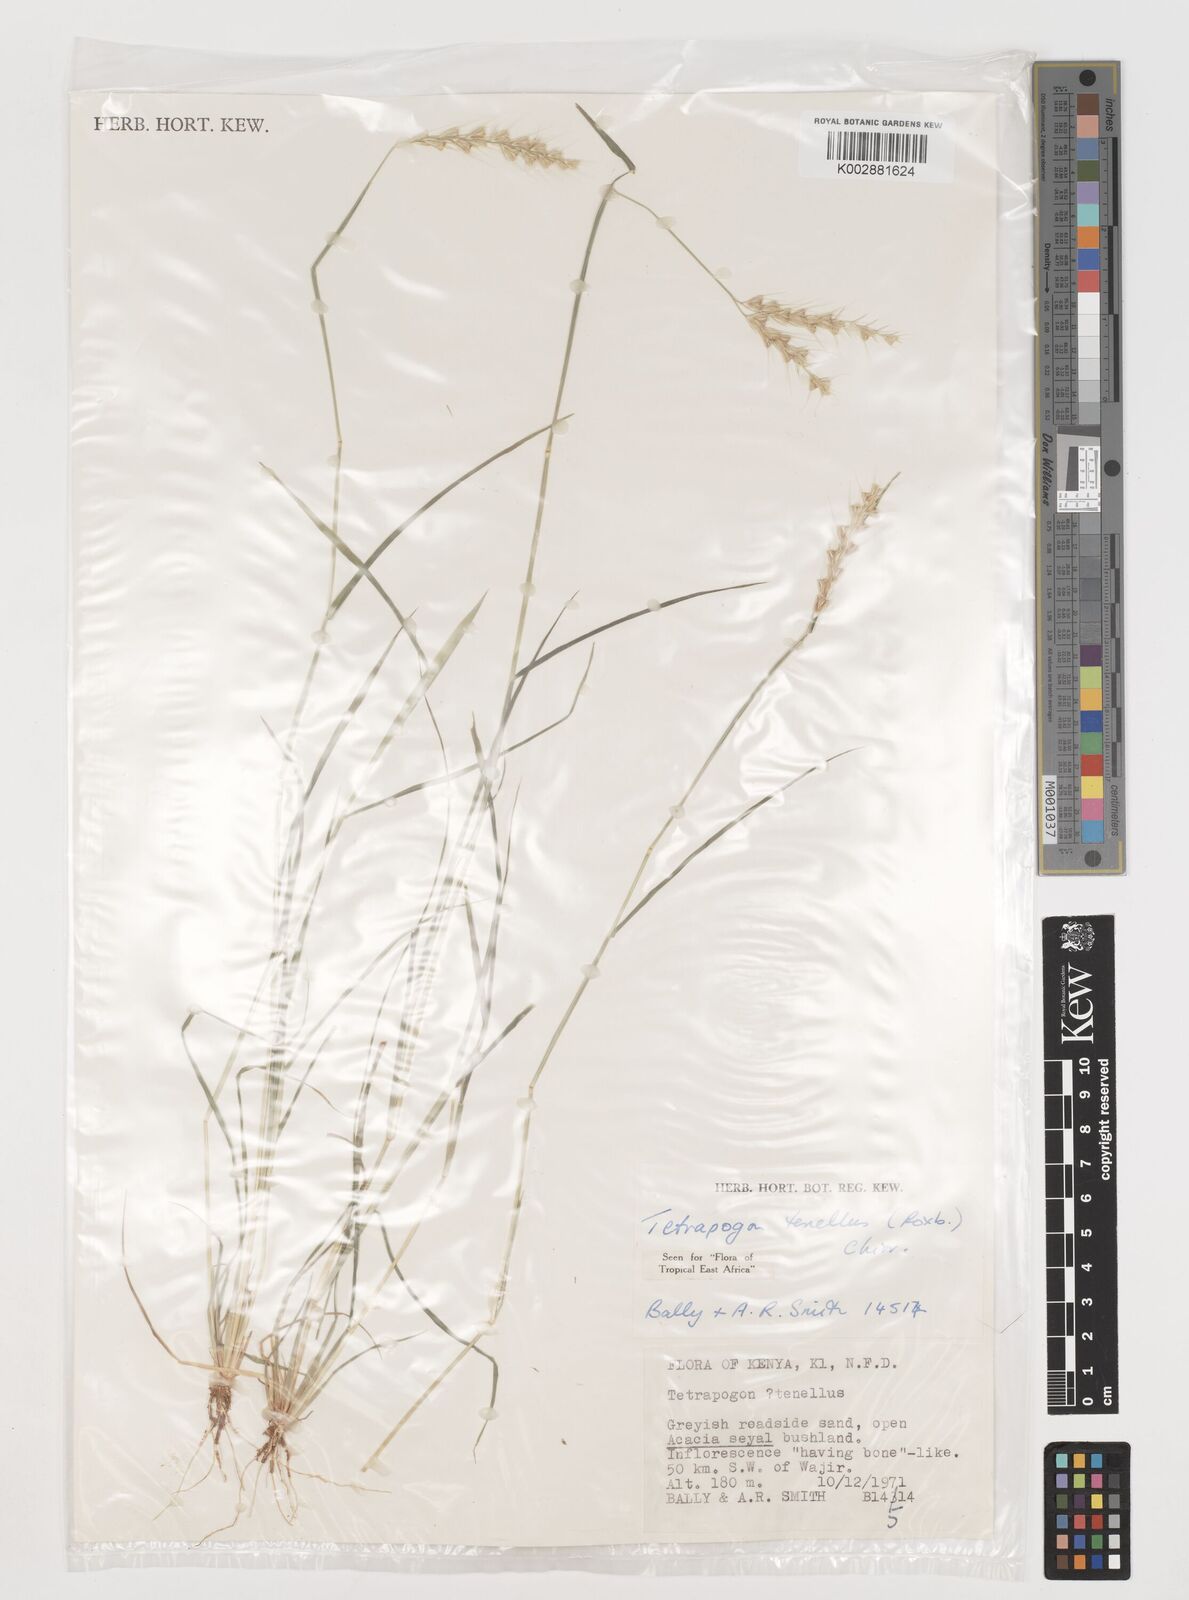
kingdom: Plantae
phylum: Tracheophyta
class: Liliopsida
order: Poales
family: Poaceae
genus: Tetrapogon
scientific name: Tetrapogon tenellus
